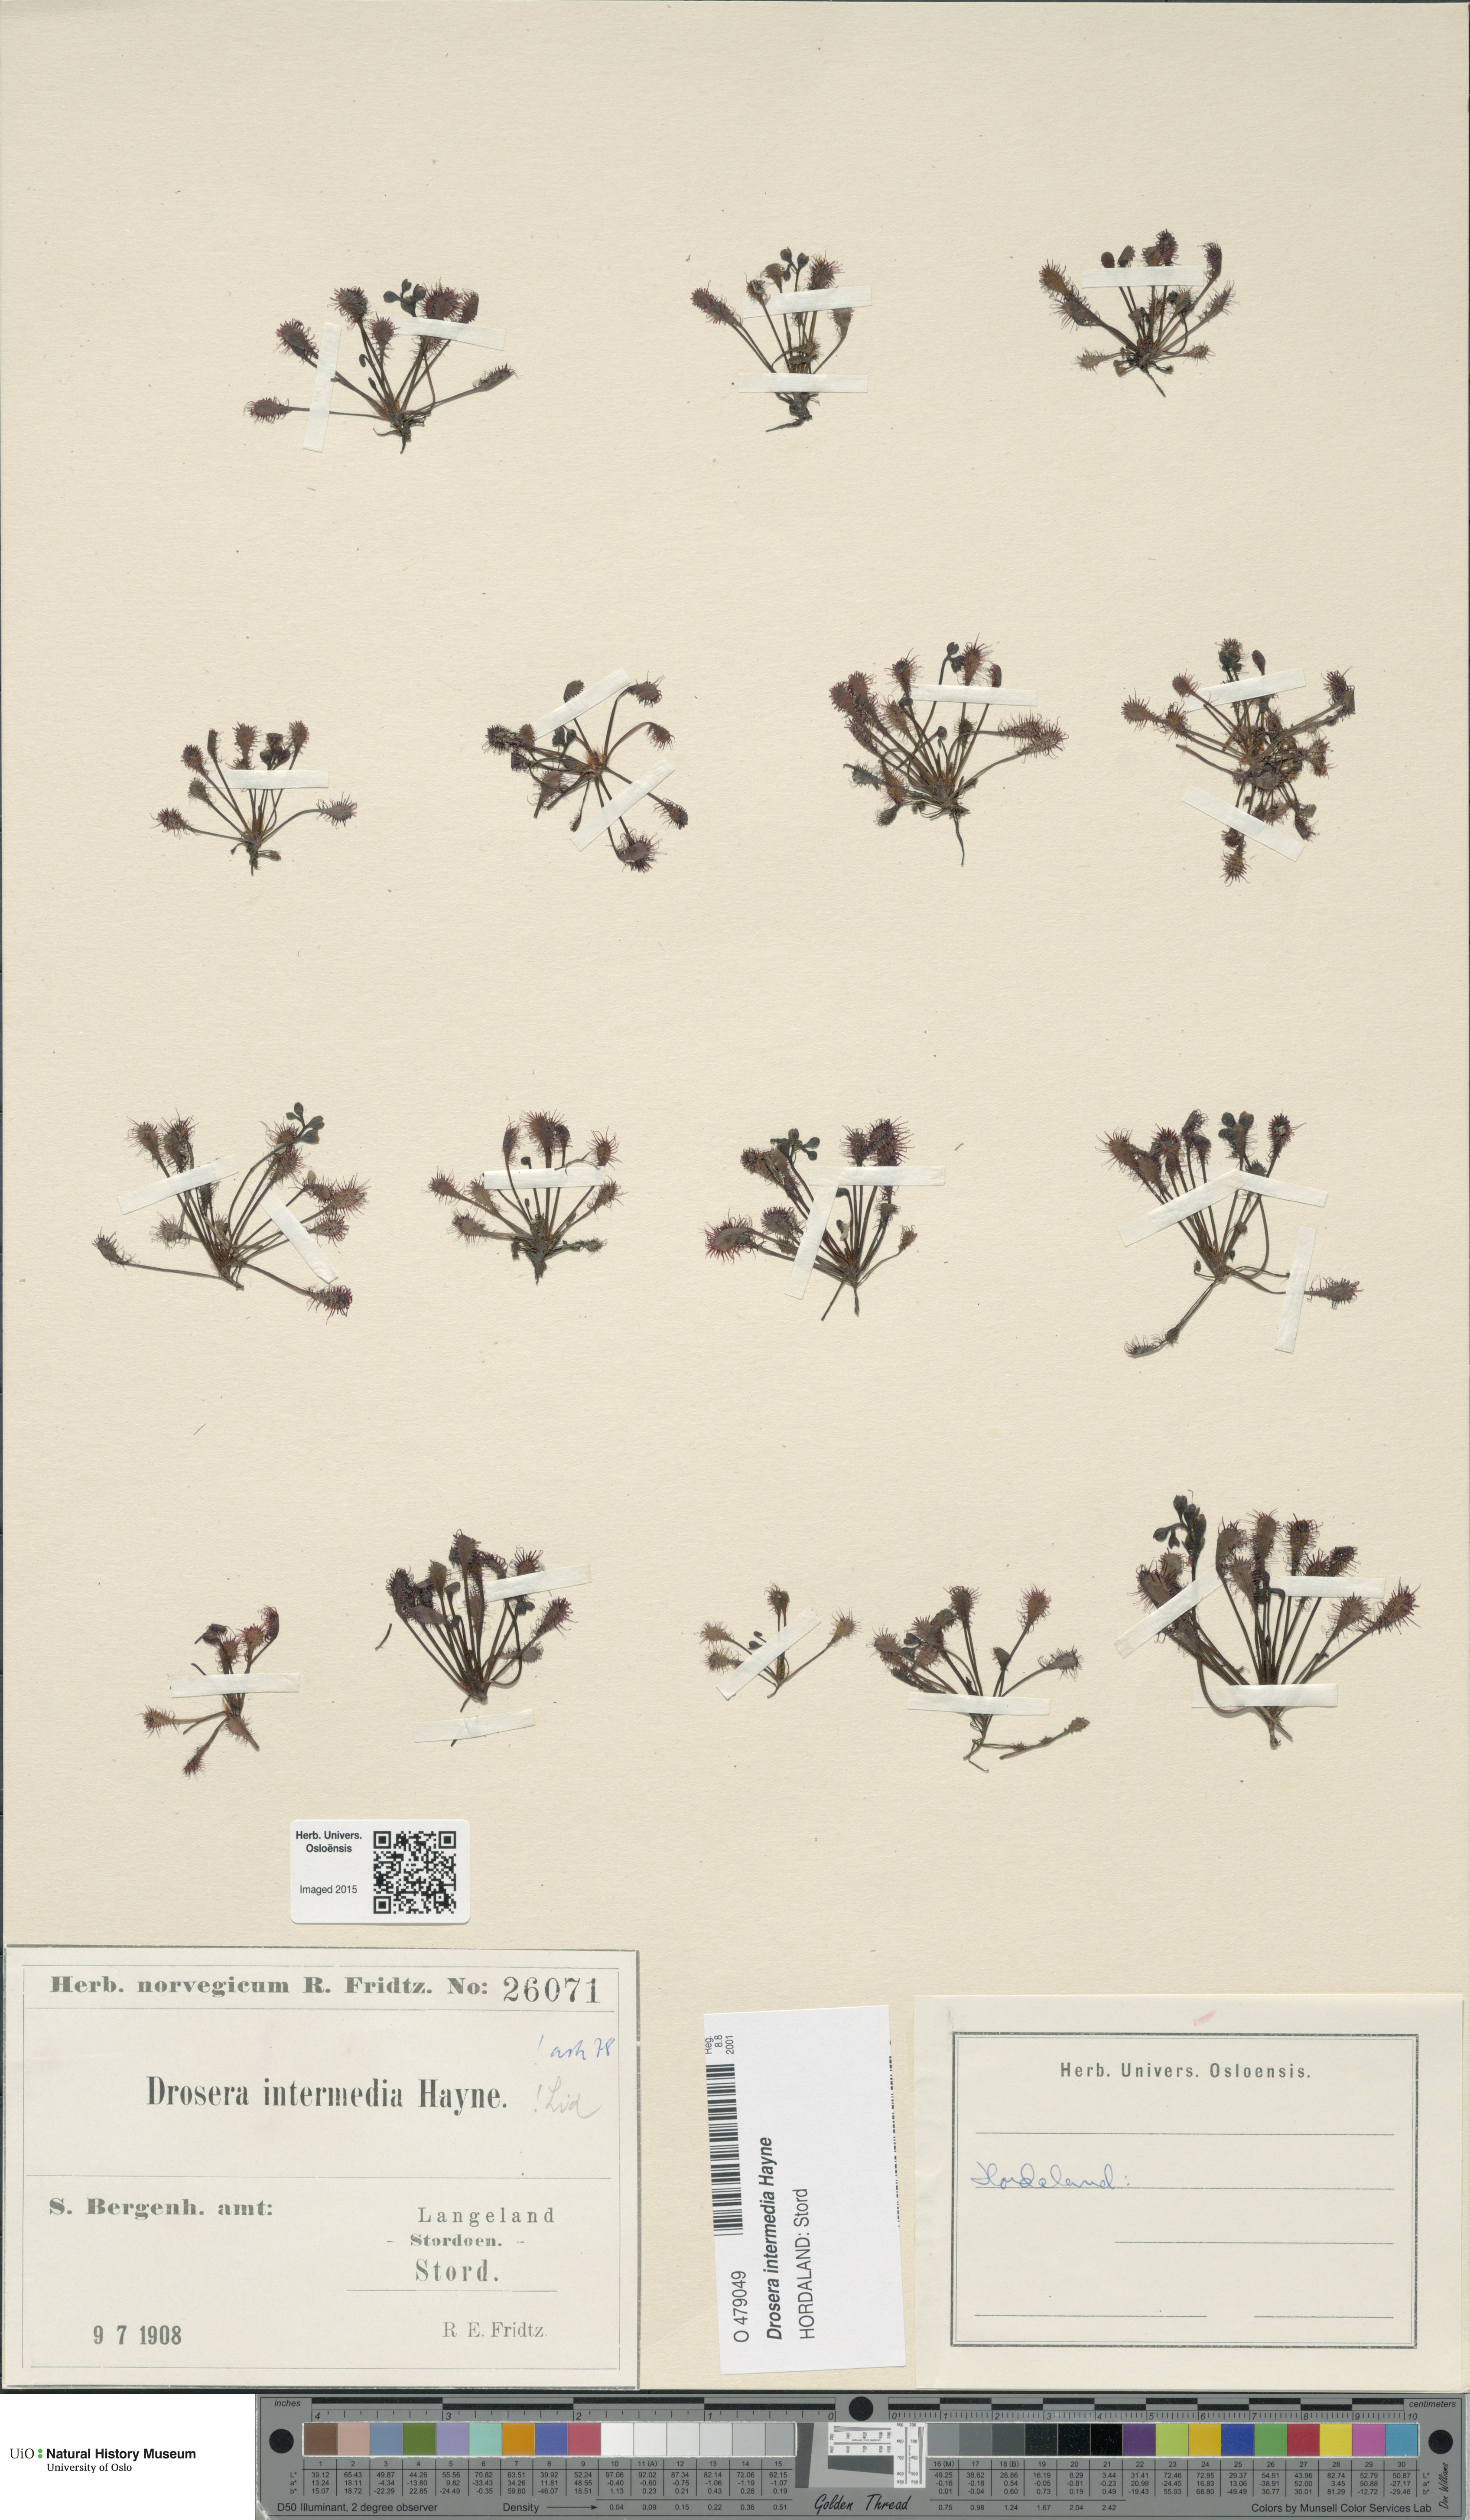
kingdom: Plantae
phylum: Tracheophyta
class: Magnoliopsida
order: Caryophyllales
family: Droseraceae
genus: Drosera
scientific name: Drosera intermedia
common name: Oblong-leaved sundew
